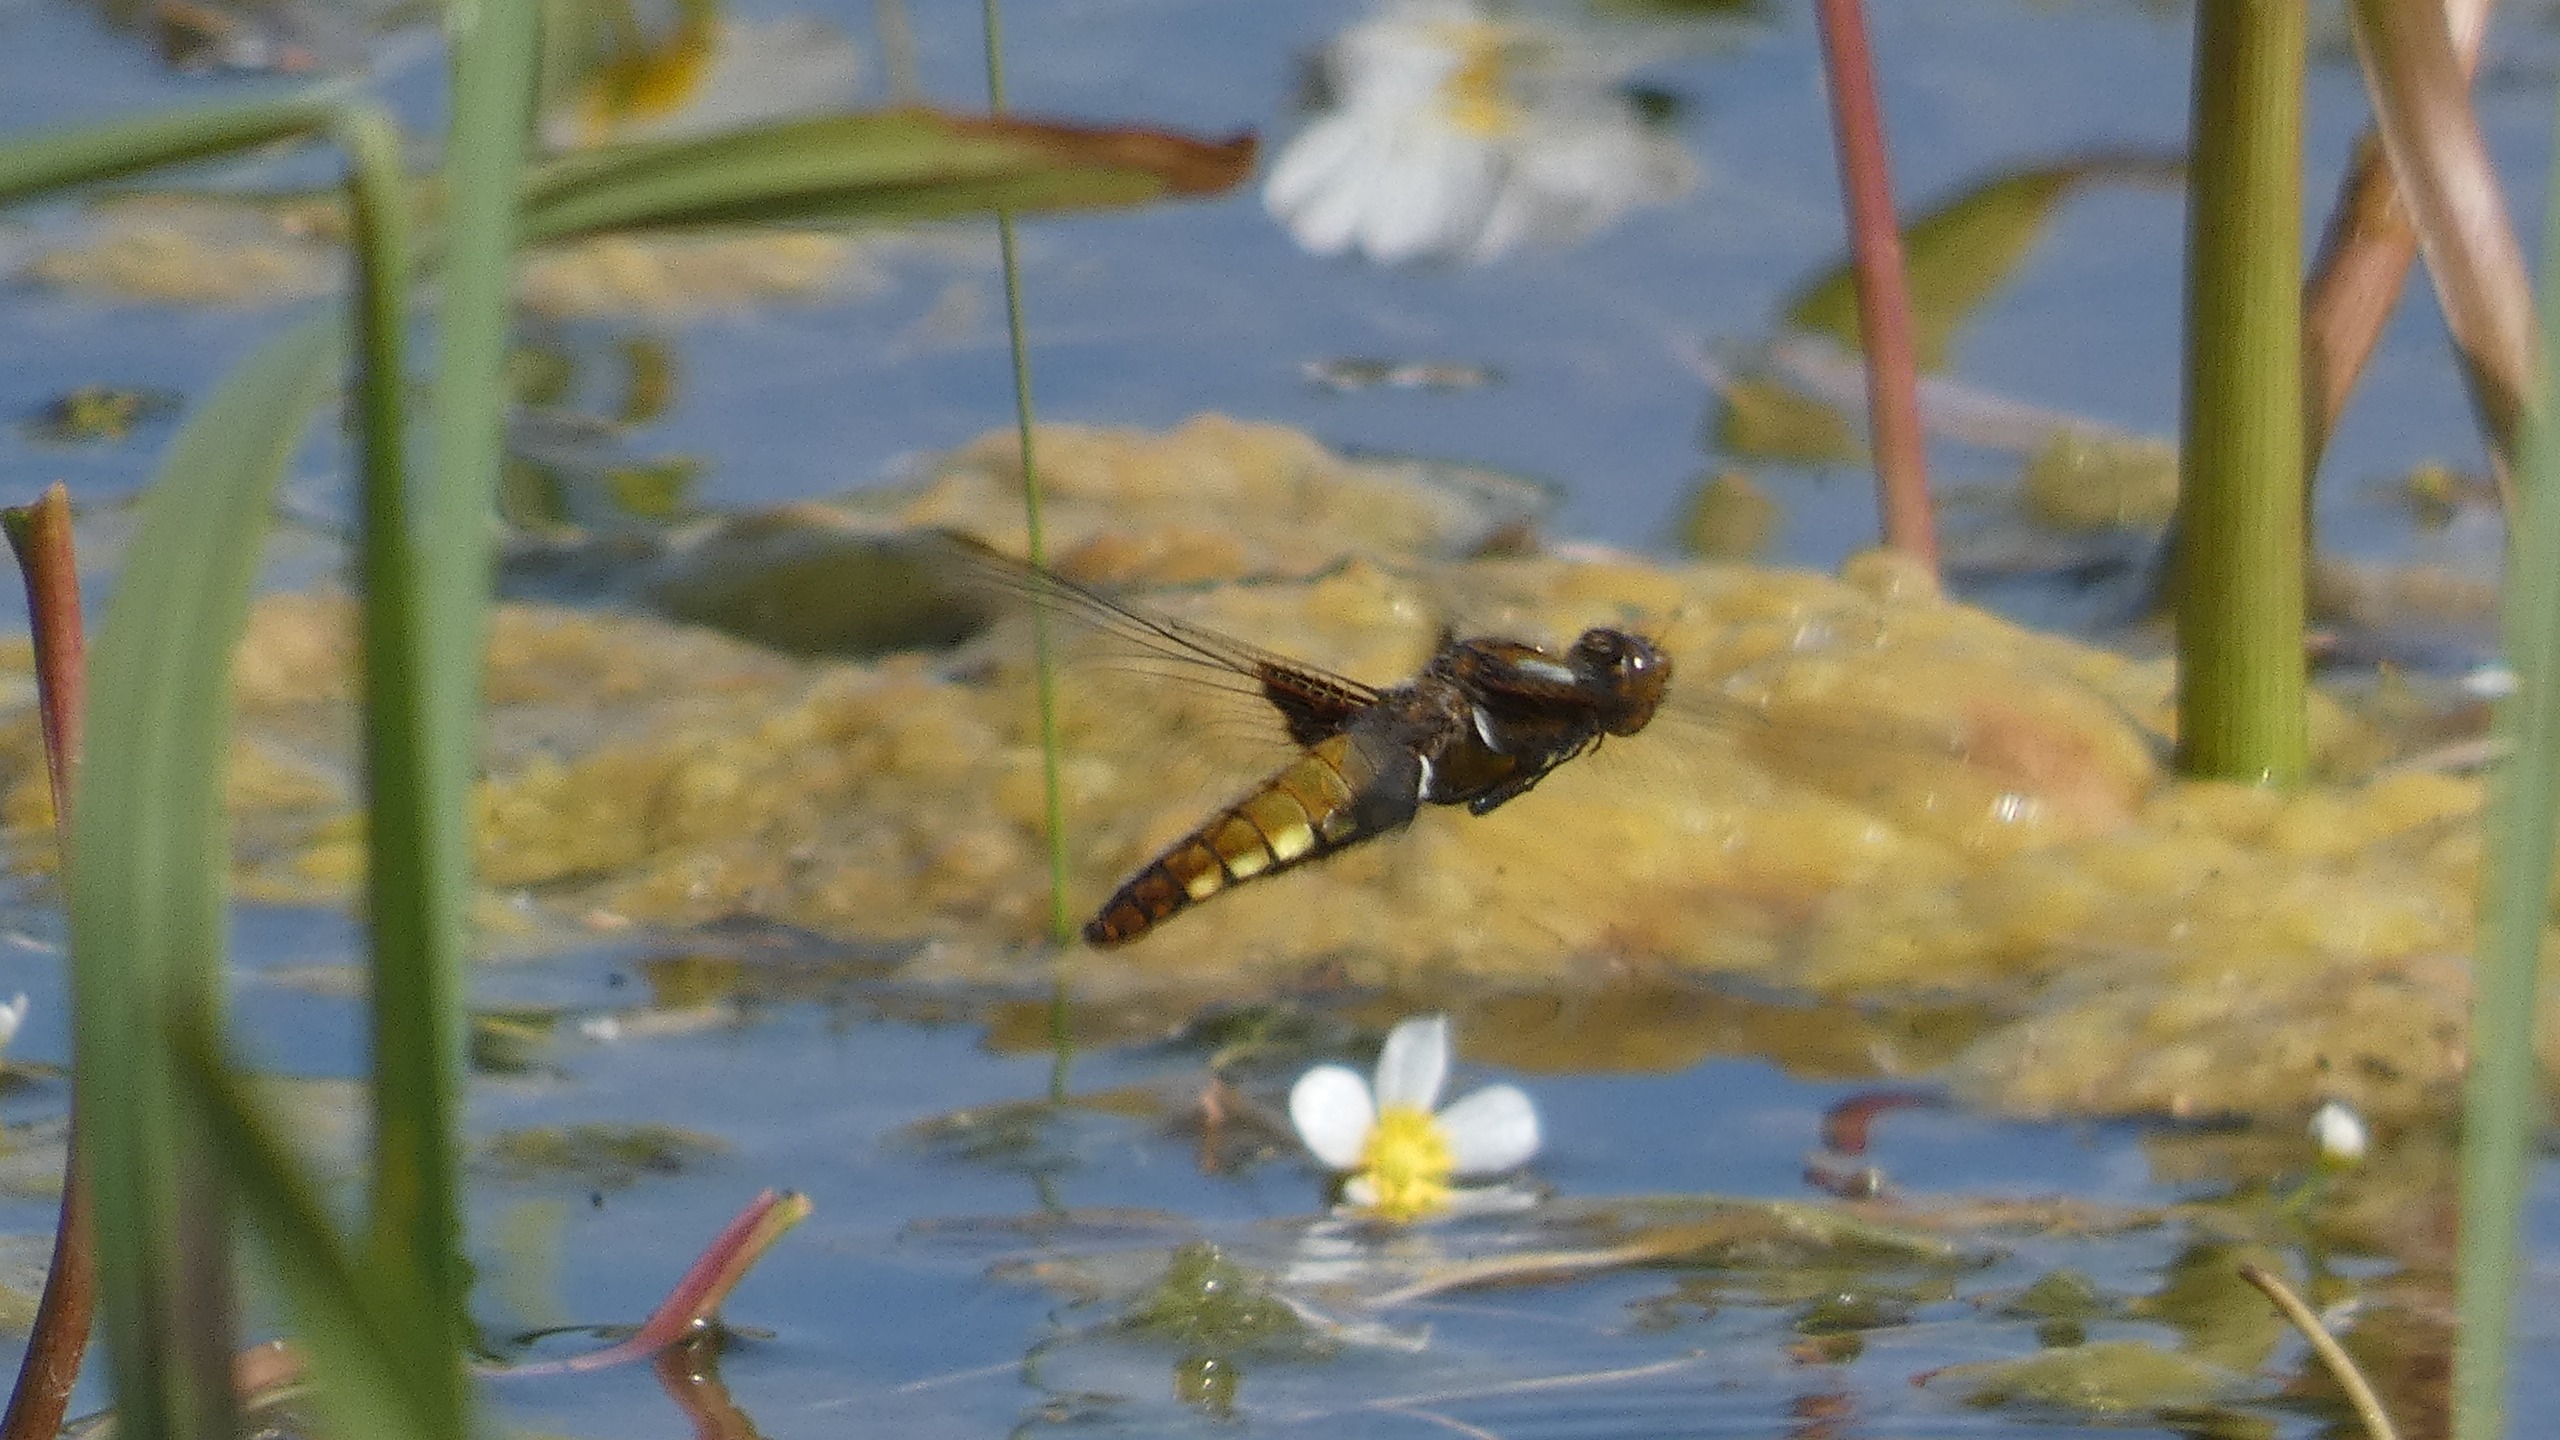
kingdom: Animalia
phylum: Arthropoda
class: Insecta
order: Odonata
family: Libellulidae
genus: Libellula
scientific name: Libellula depressa
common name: Blå libel
